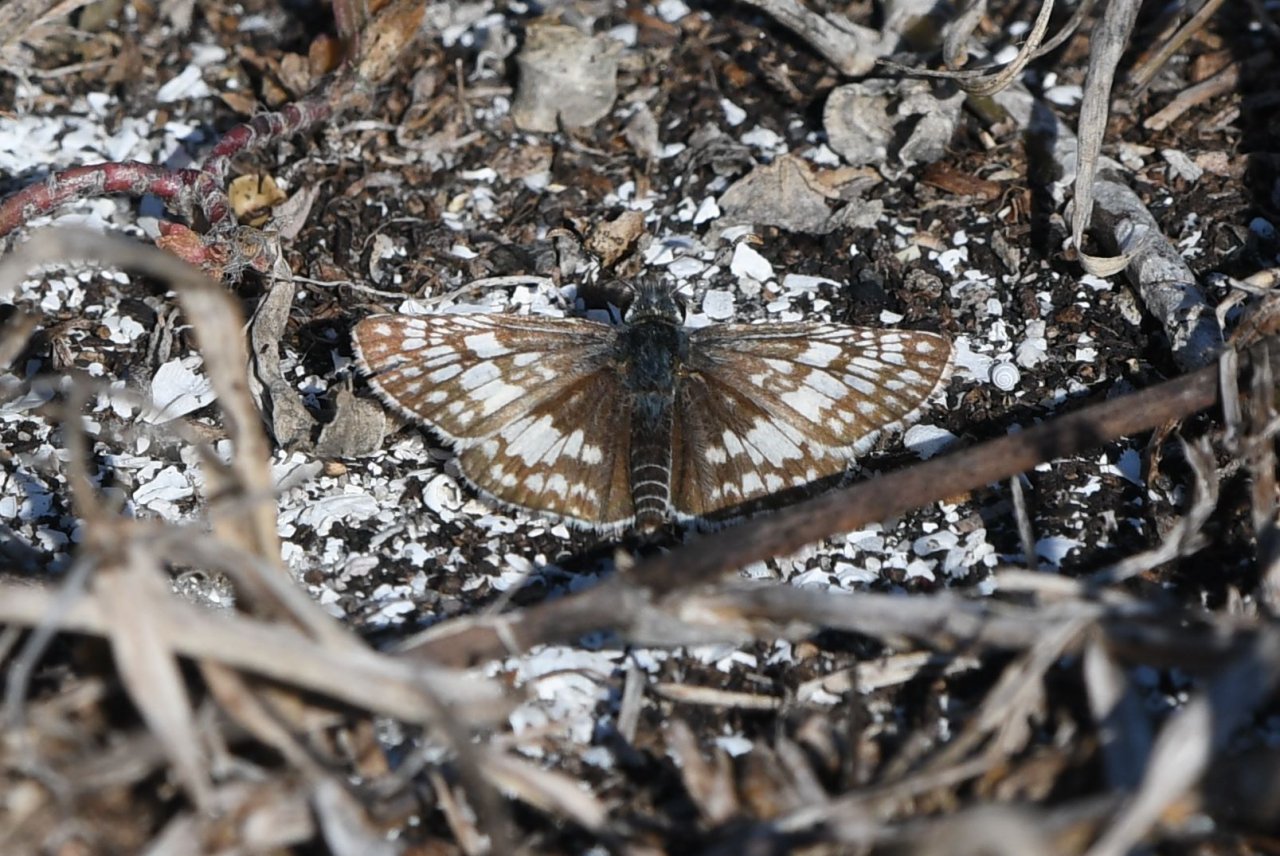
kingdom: Animalia
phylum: Arthropoda
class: Insecta
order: Lepidoptera
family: Hesperiidae
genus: Pyrgus
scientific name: Pyrgus communis
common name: White Checkered-Skipper
